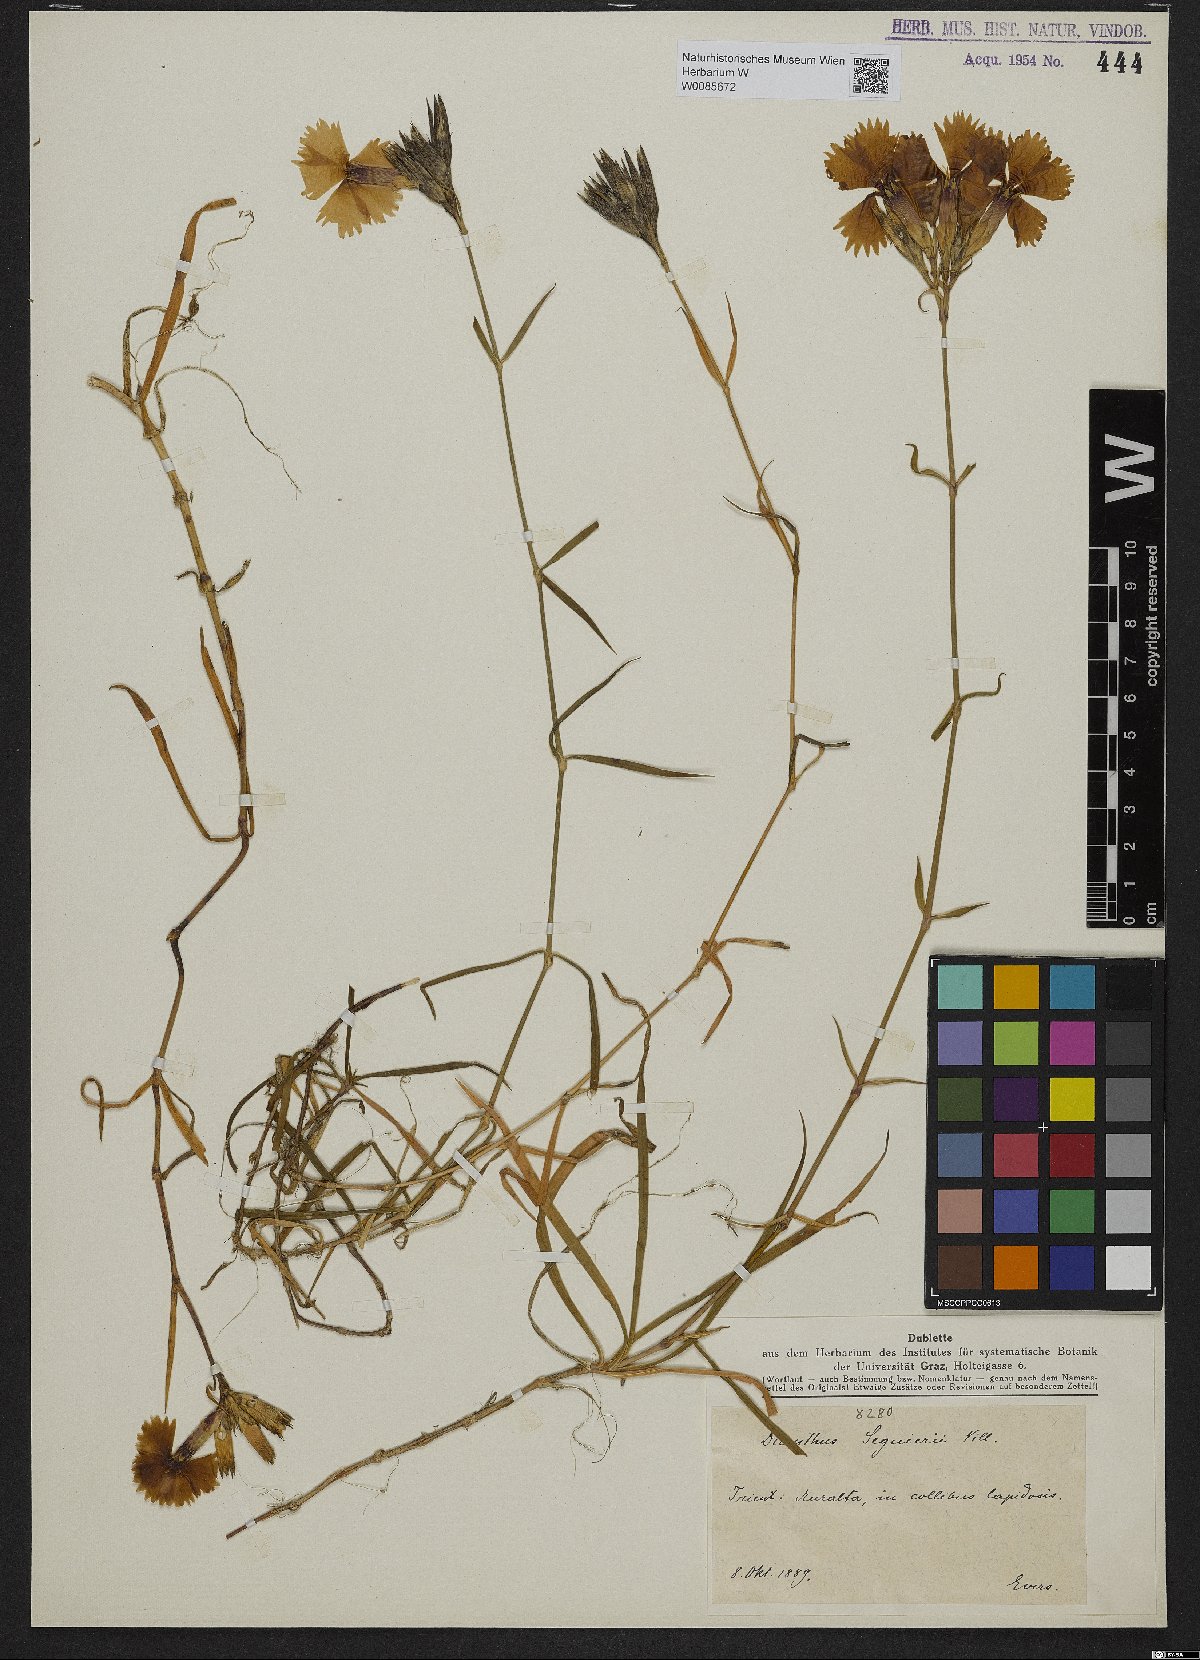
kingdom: Plantae
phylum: Tracheophyta
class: Magnoliopsida
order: Caryophyllales
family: Caryophyllaceae
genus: Dianthus
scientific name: Dianthus seguieri
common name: Ragged pink
